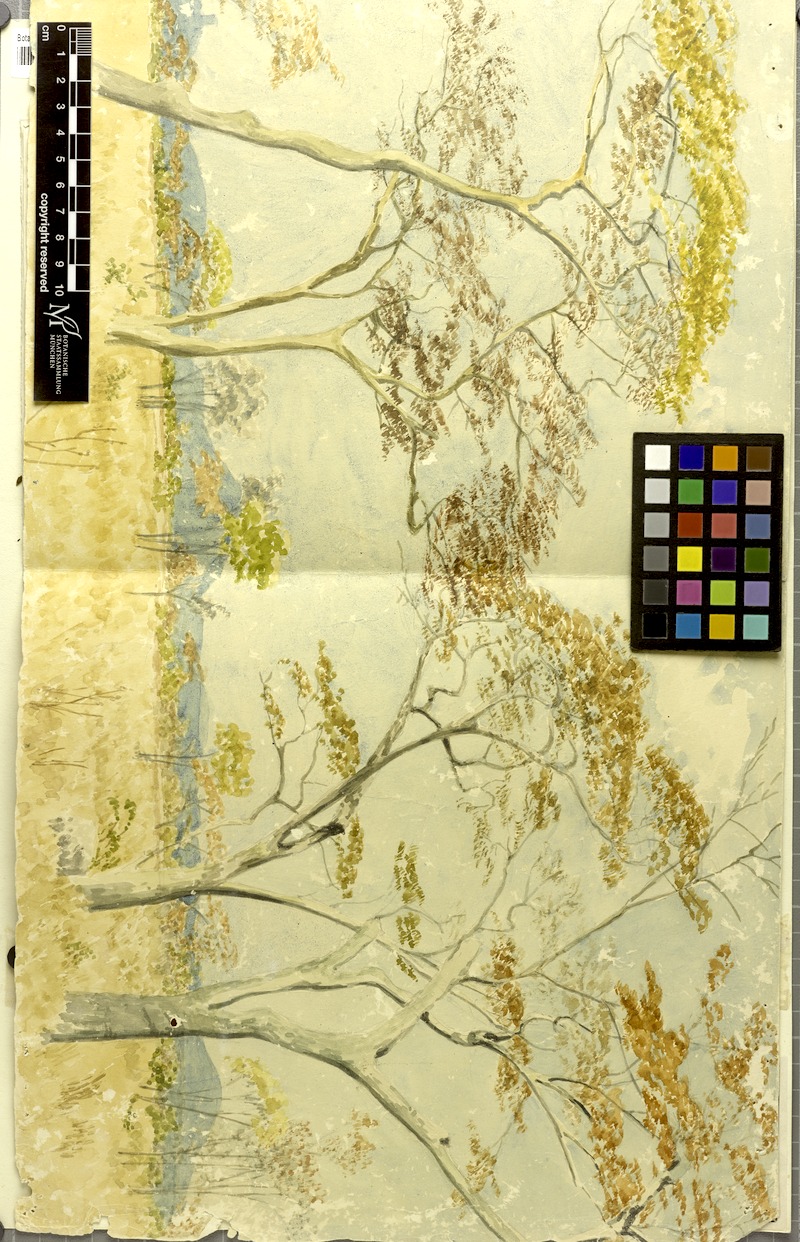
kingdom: Plantae
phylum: Tracheophyta
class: Magnoliopsida
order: Fabales
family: Fabaceae
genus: Brachystegia
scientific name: Brachystegia spiciformis
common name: Zebrawood
